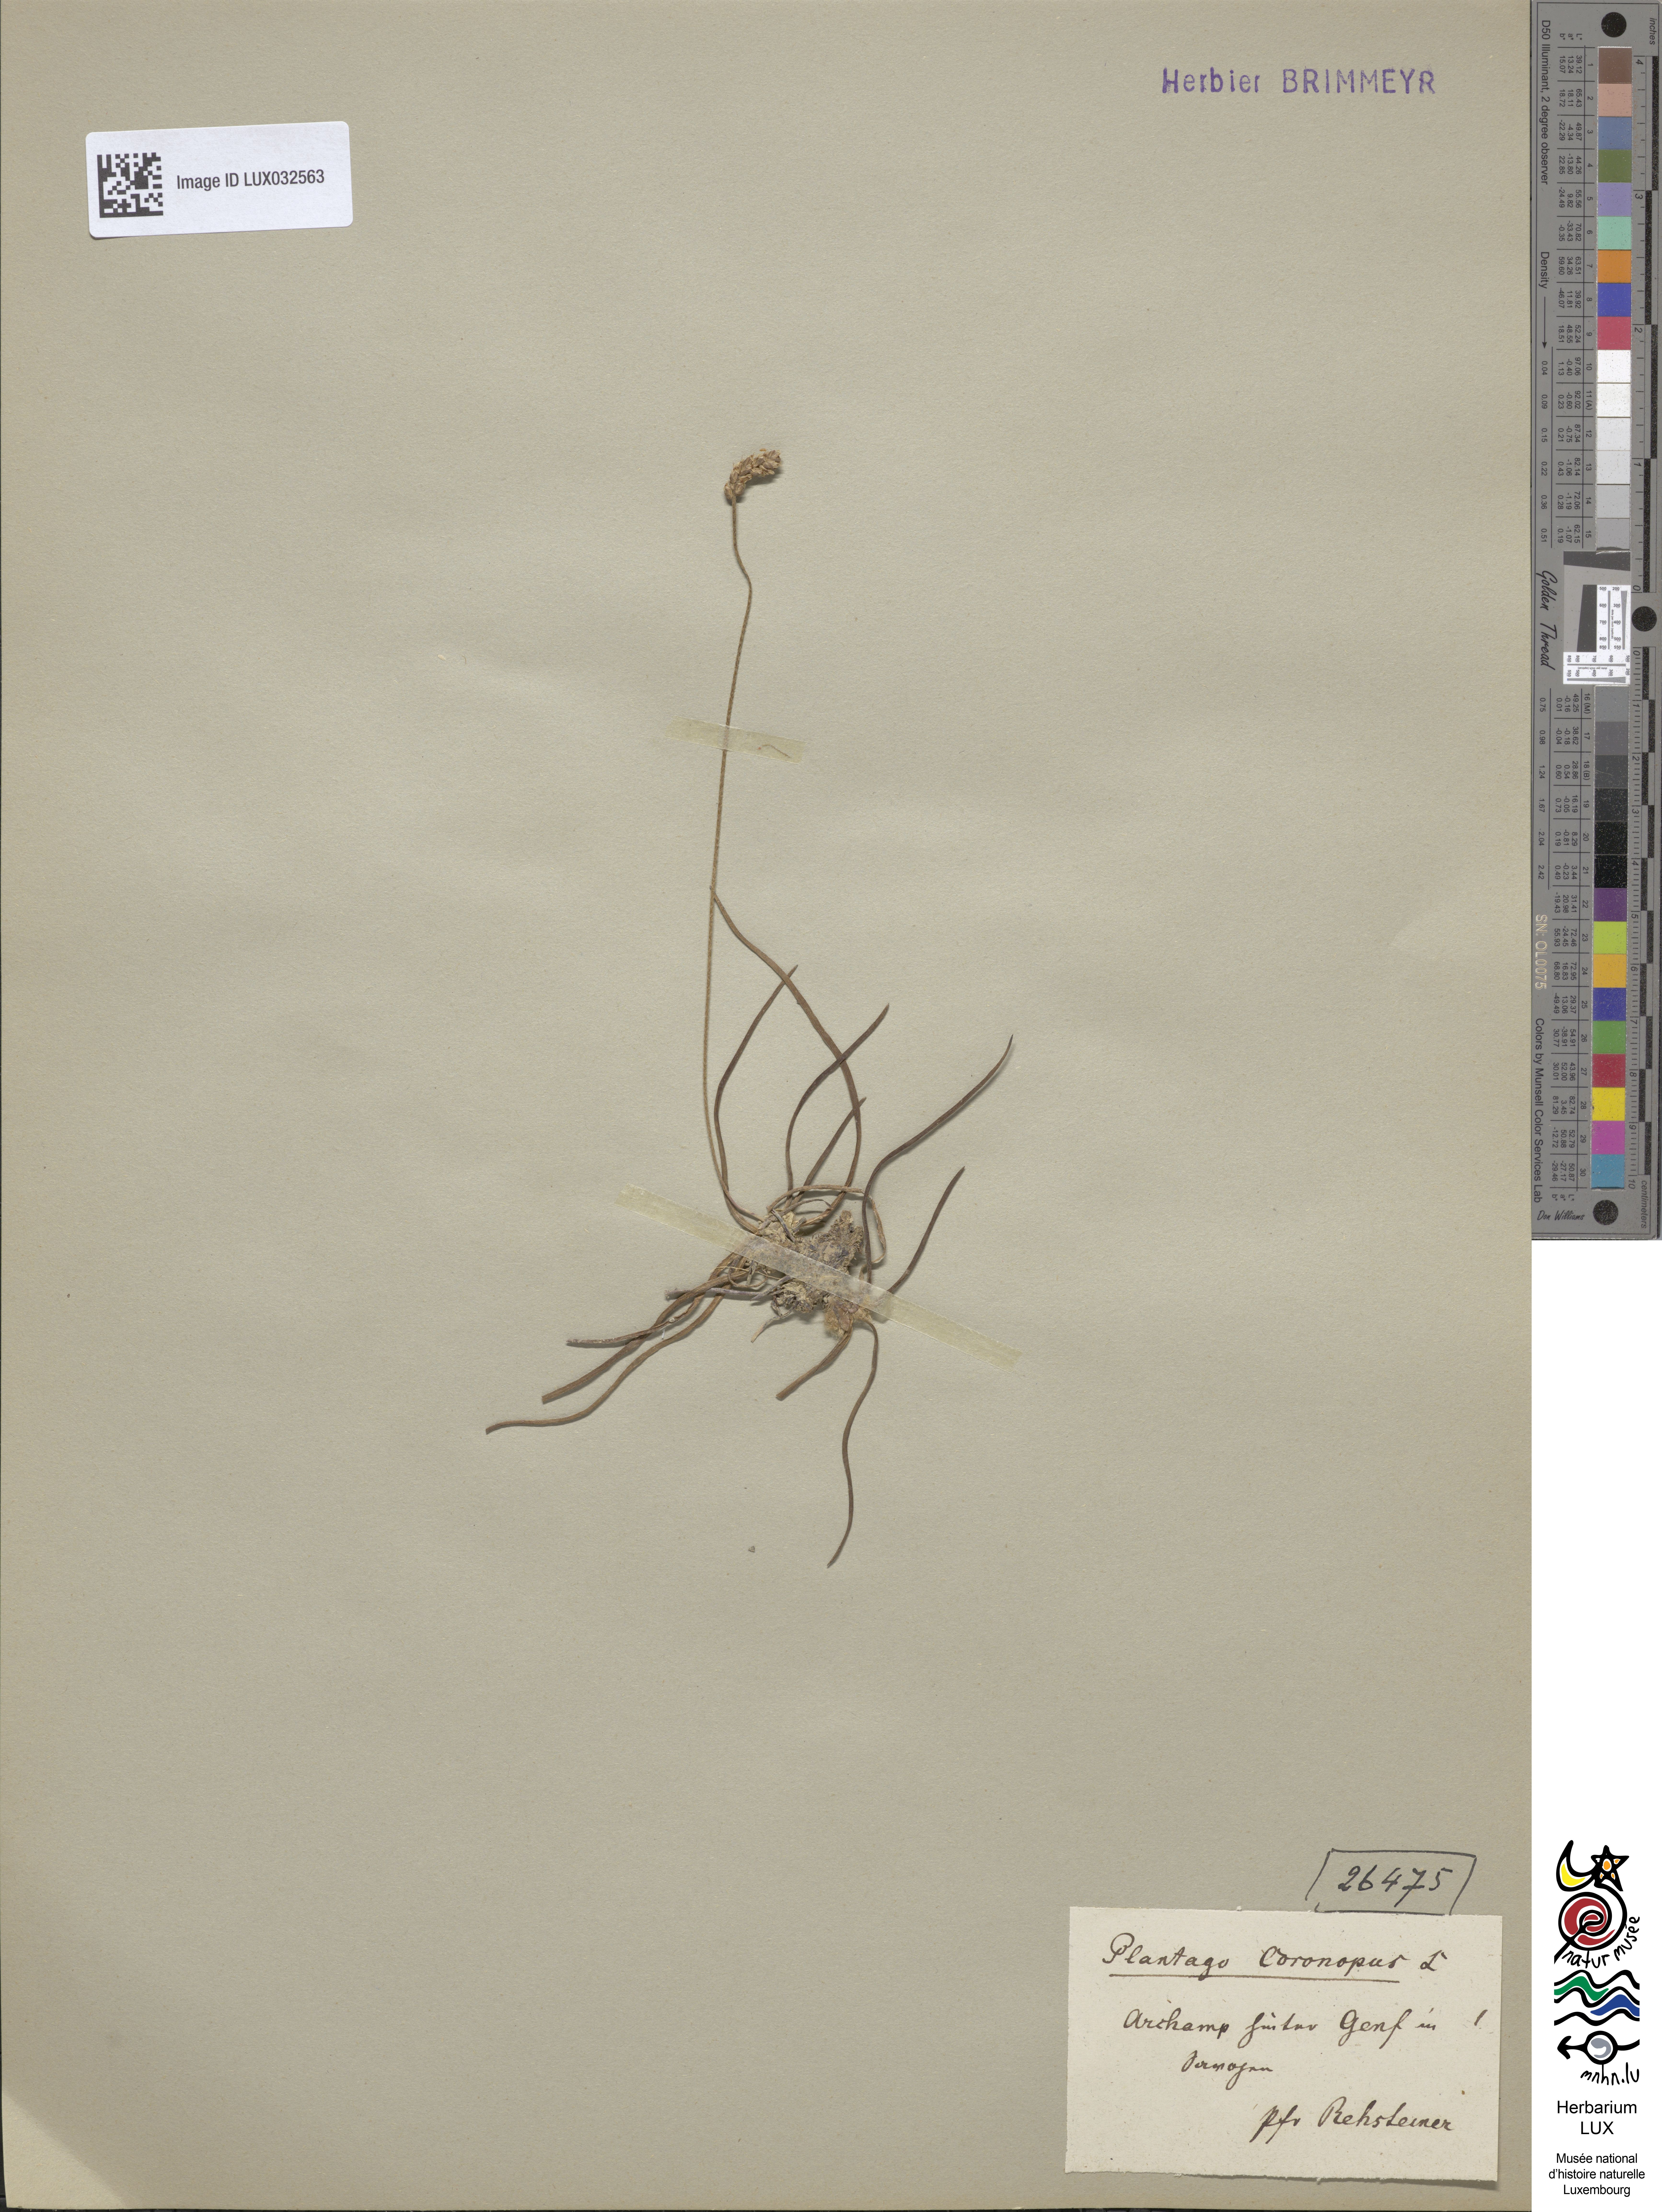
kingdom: Plantae
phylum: Tracheophyta
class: Magnoliopsida
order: Lamiales
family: Plantaginaceae
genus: Plantago
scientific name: Plantago coronopus
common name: Buck's-horn plantain
